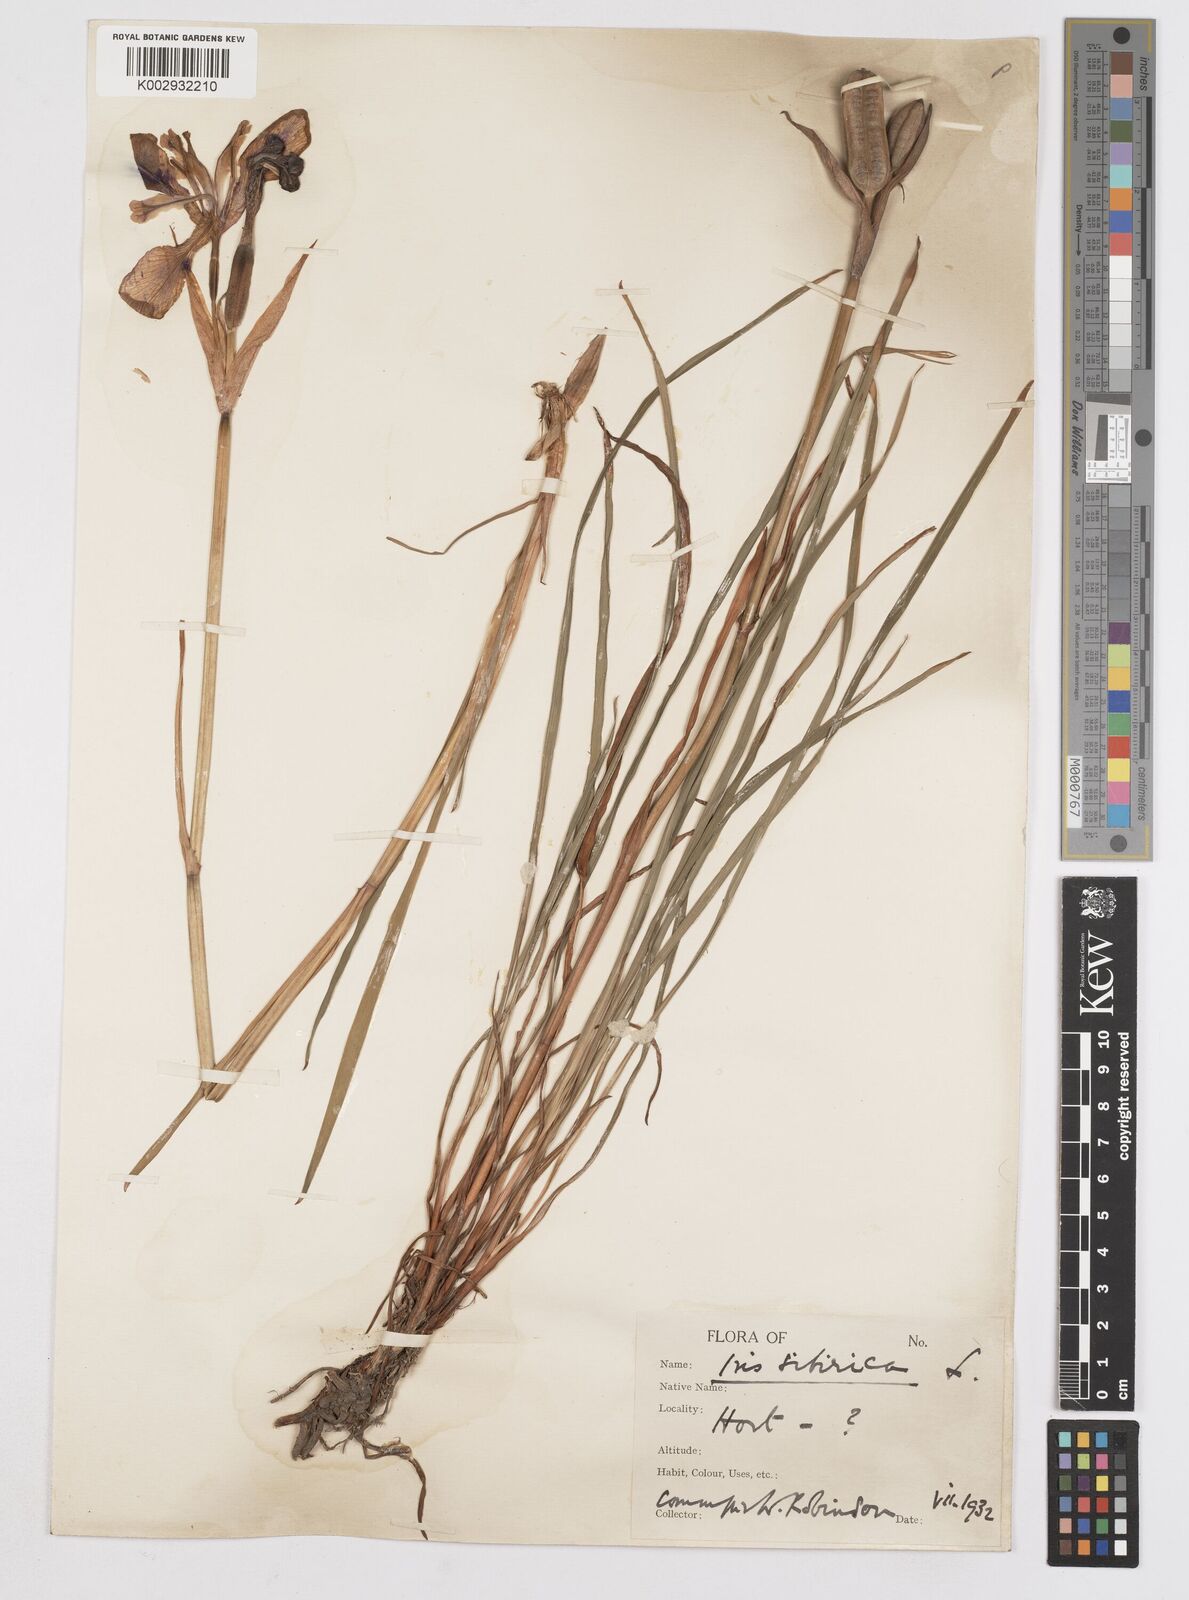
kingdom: Plantae
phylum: Tracheophyta
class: Liliopsida
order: Asparagales
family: Iridaceae
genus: Iris
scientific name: Iris sanguinea
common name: Blood iris
